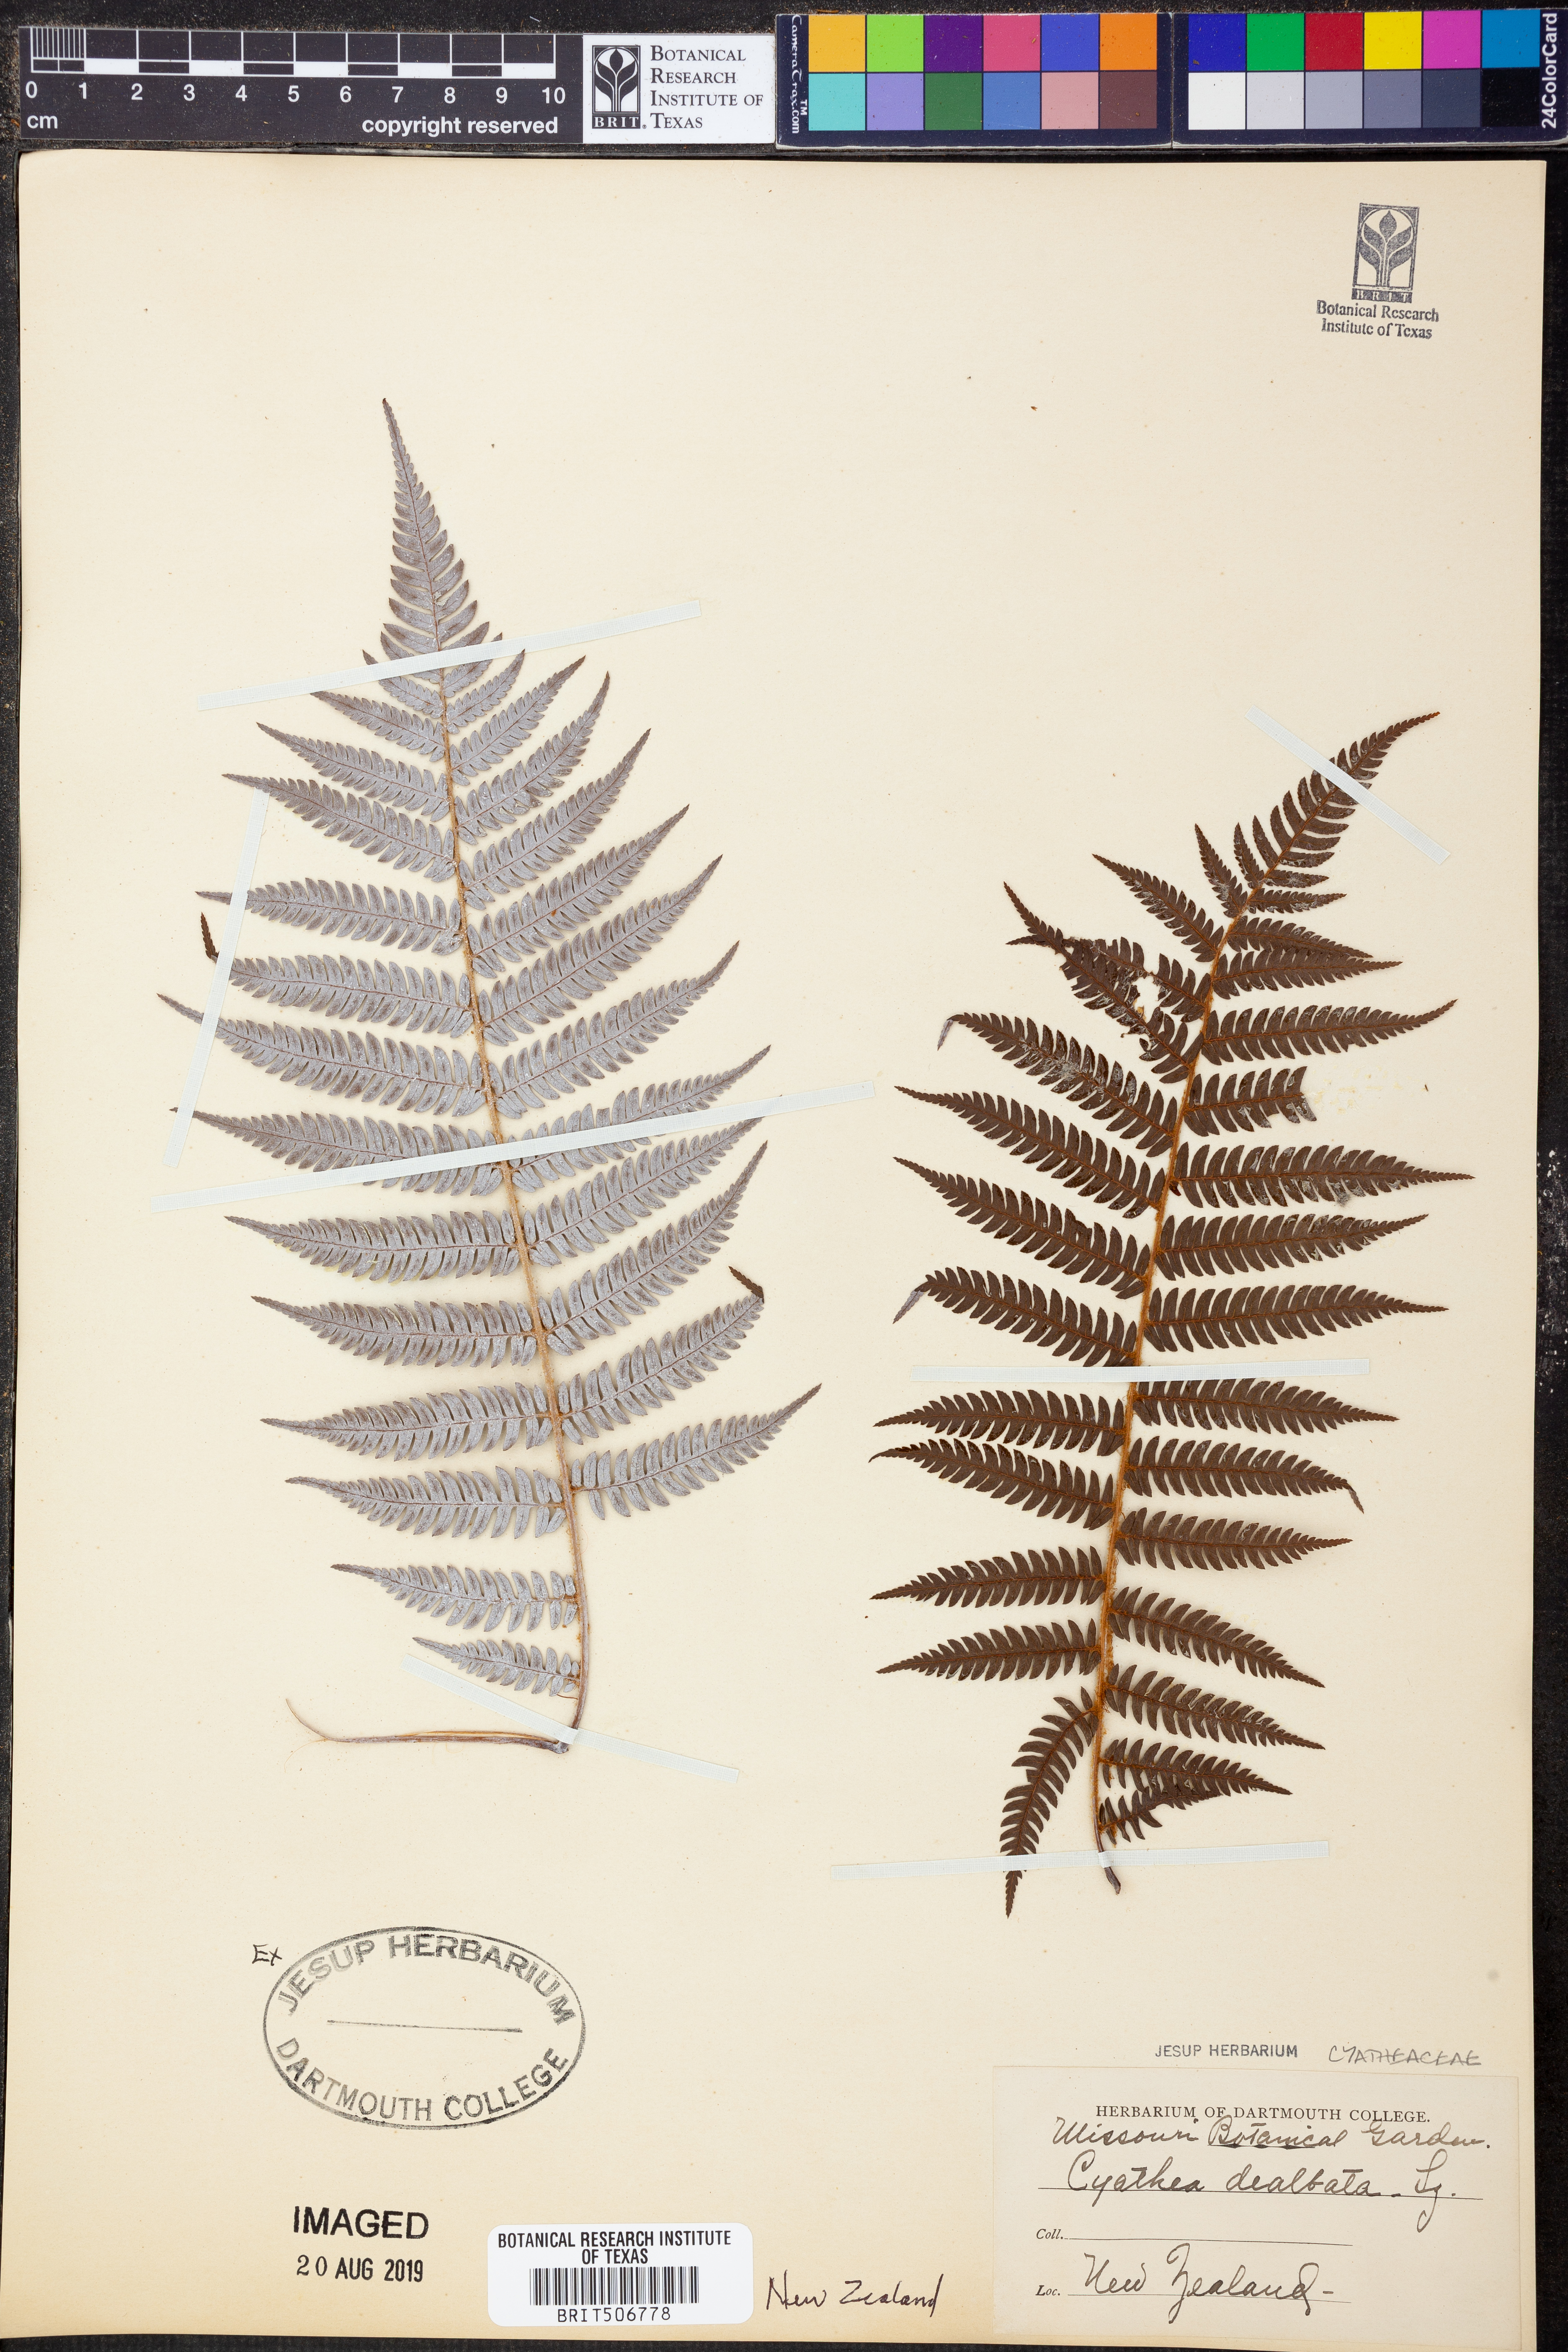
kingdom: Plantae
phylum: Tracheophyta
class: Polypodiopsida
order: Cyatheales
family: Cyatheaceae
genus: Alsophila
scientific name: Alsophila dealbata
